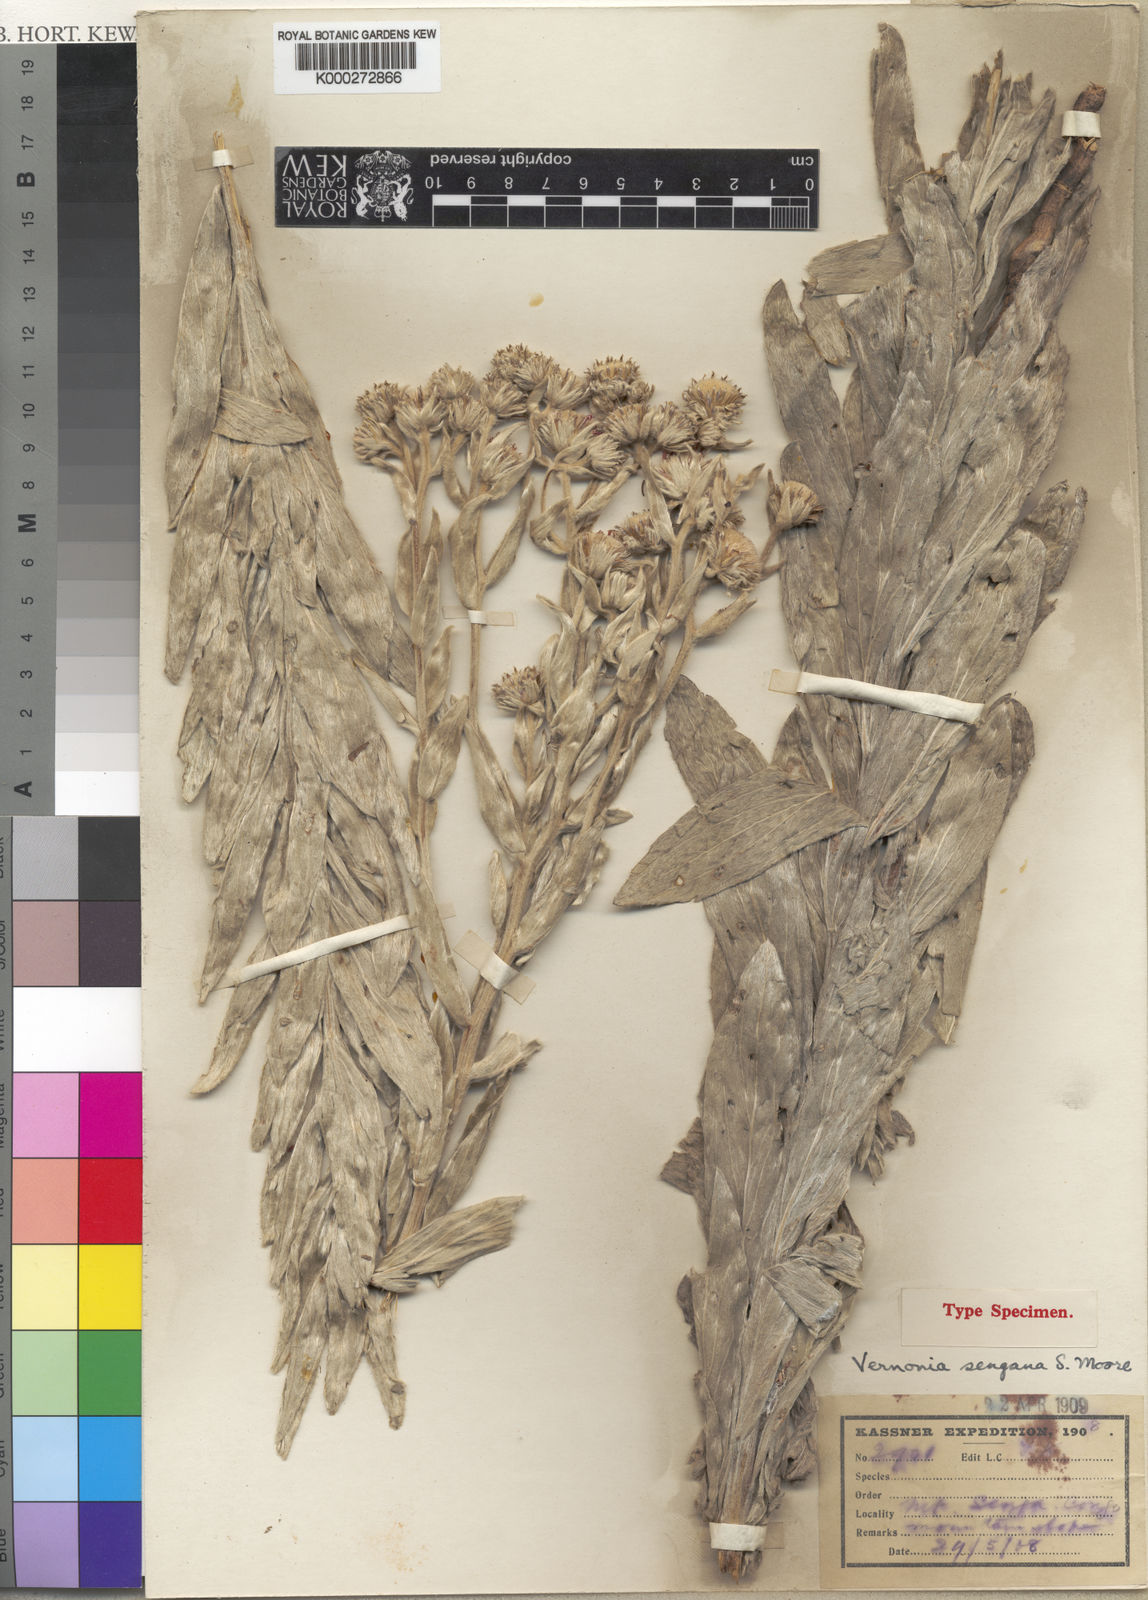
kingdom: Plantae
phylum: Tracheophyta
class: Magnoliopsida
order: Asterales
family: Asteraceae
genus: Vernonia
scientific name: Vernonia sengana
